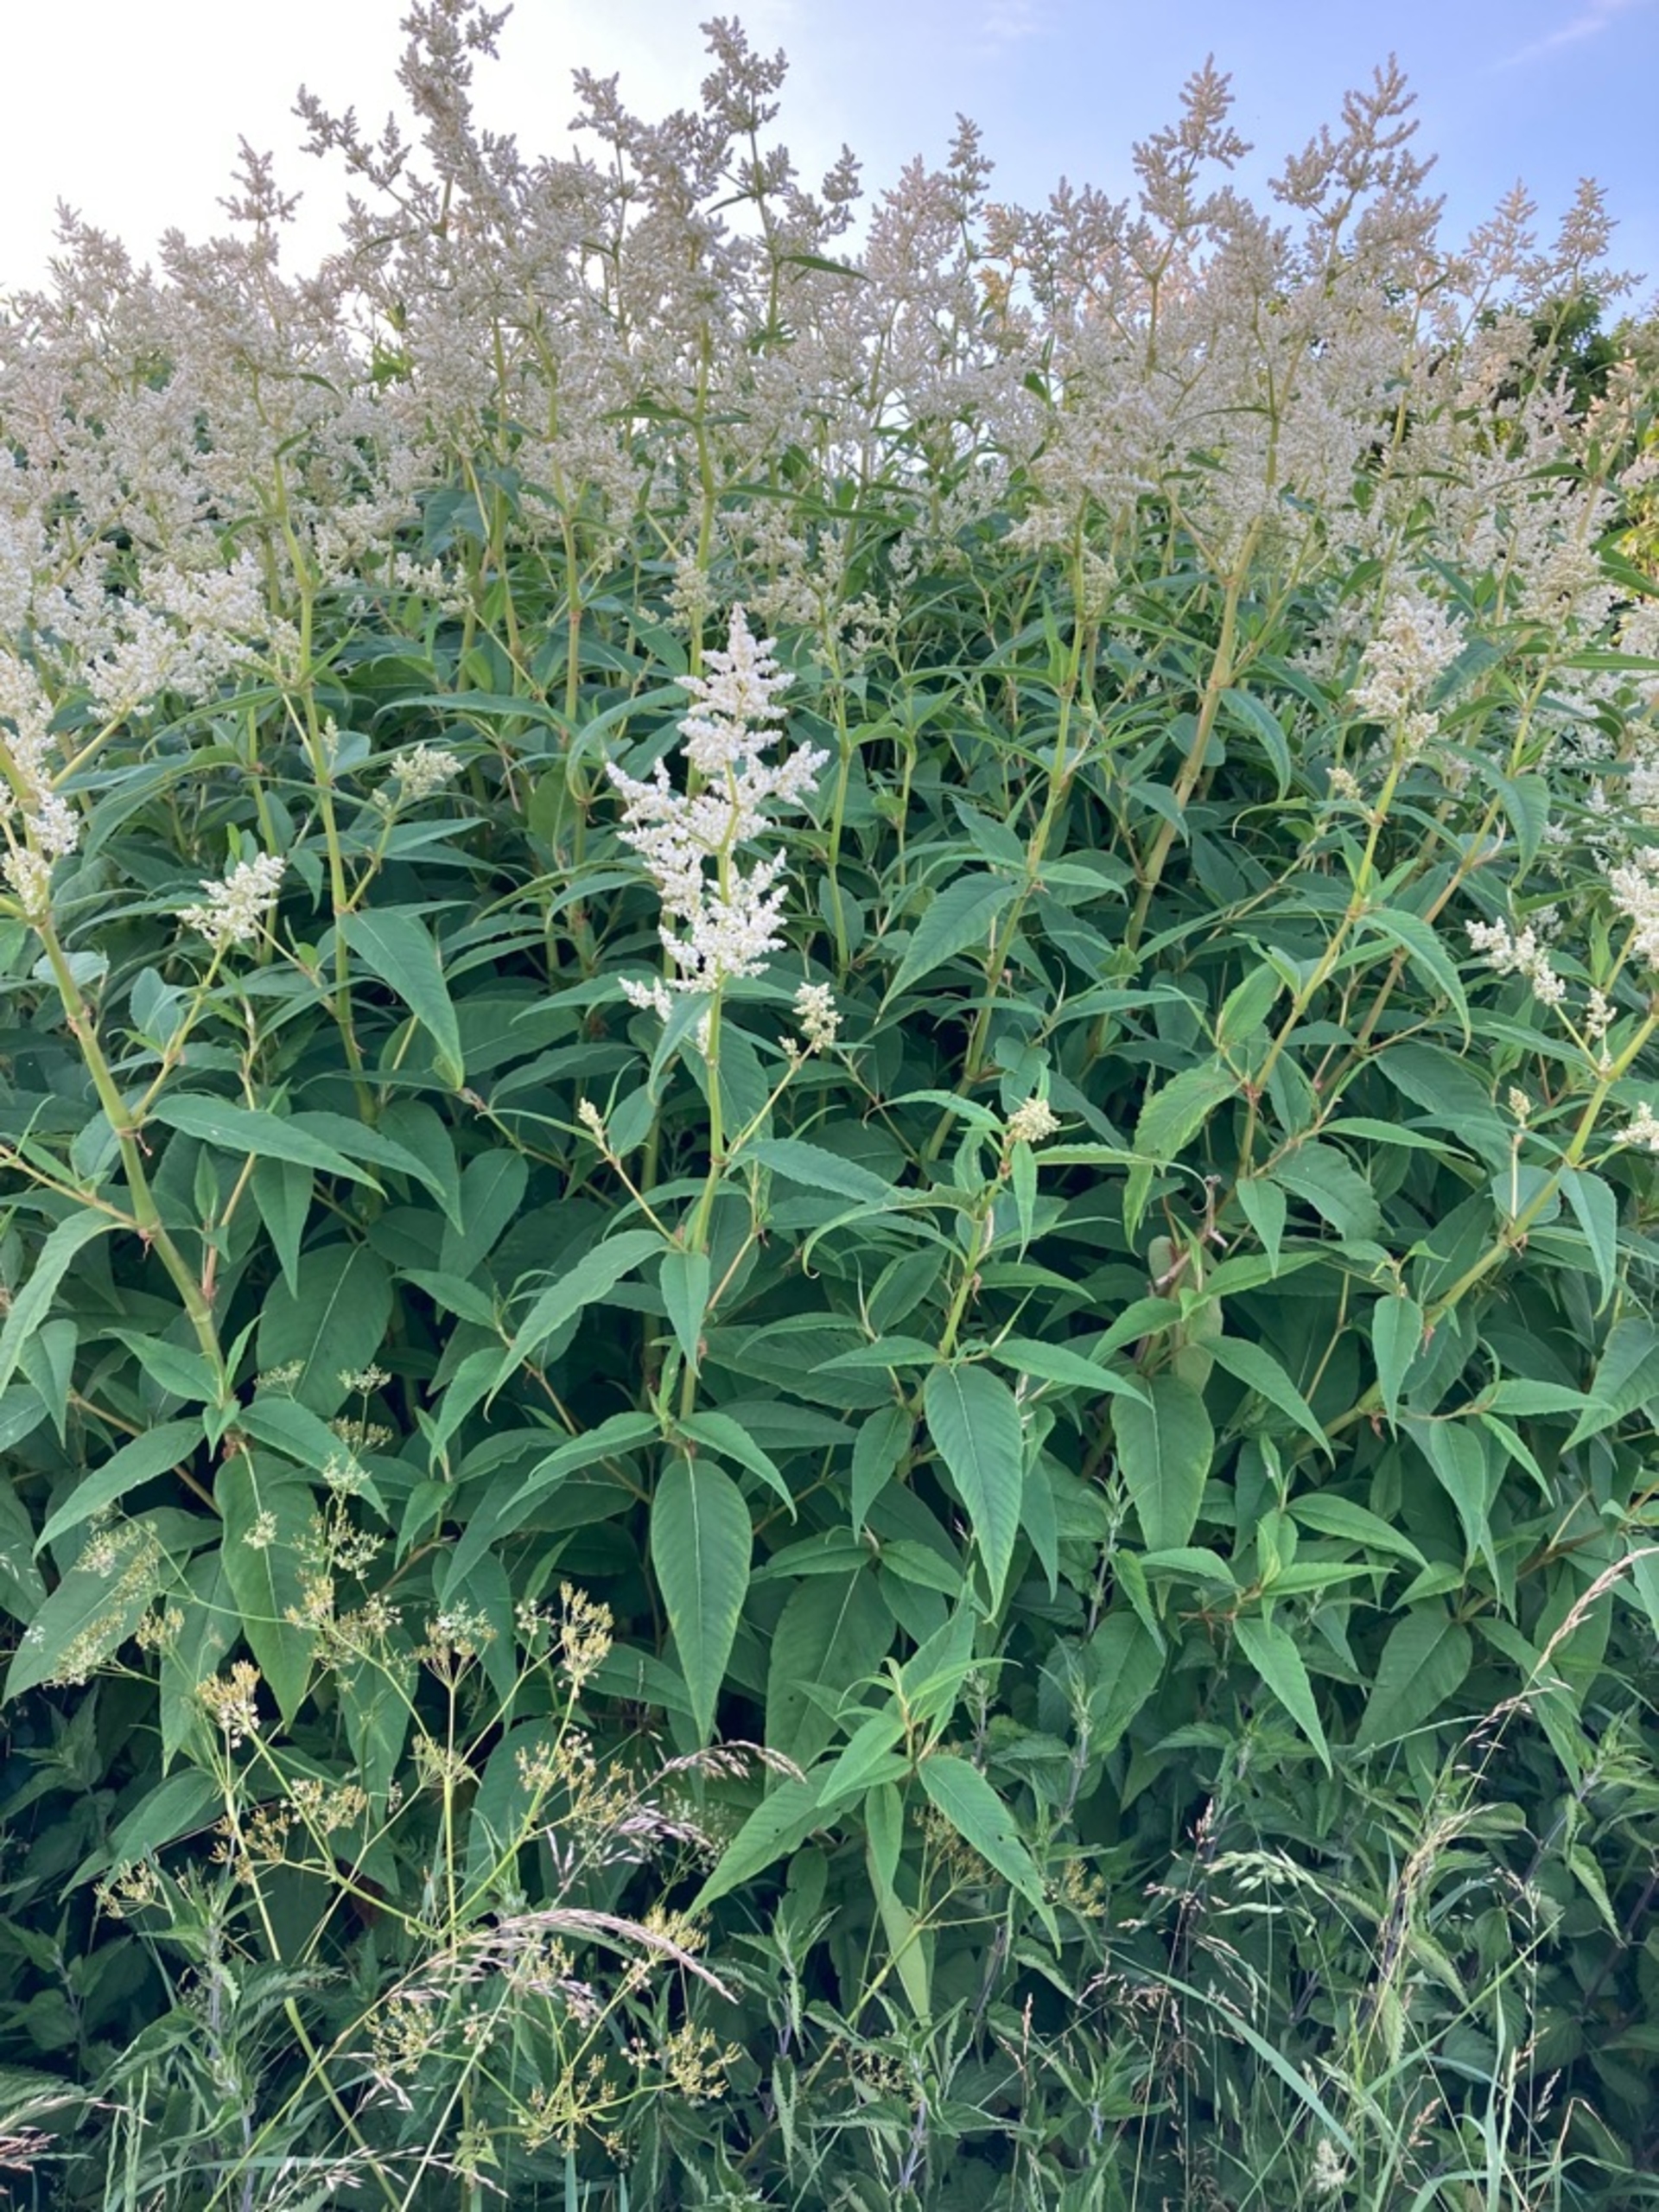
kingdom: Plantae
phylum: Tracheophyta
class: Magnoliopsida
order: Caryophyllales
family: Polygonaceae
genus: Koenigia
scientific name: Koenigia fennica
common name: Finsk pileurt
